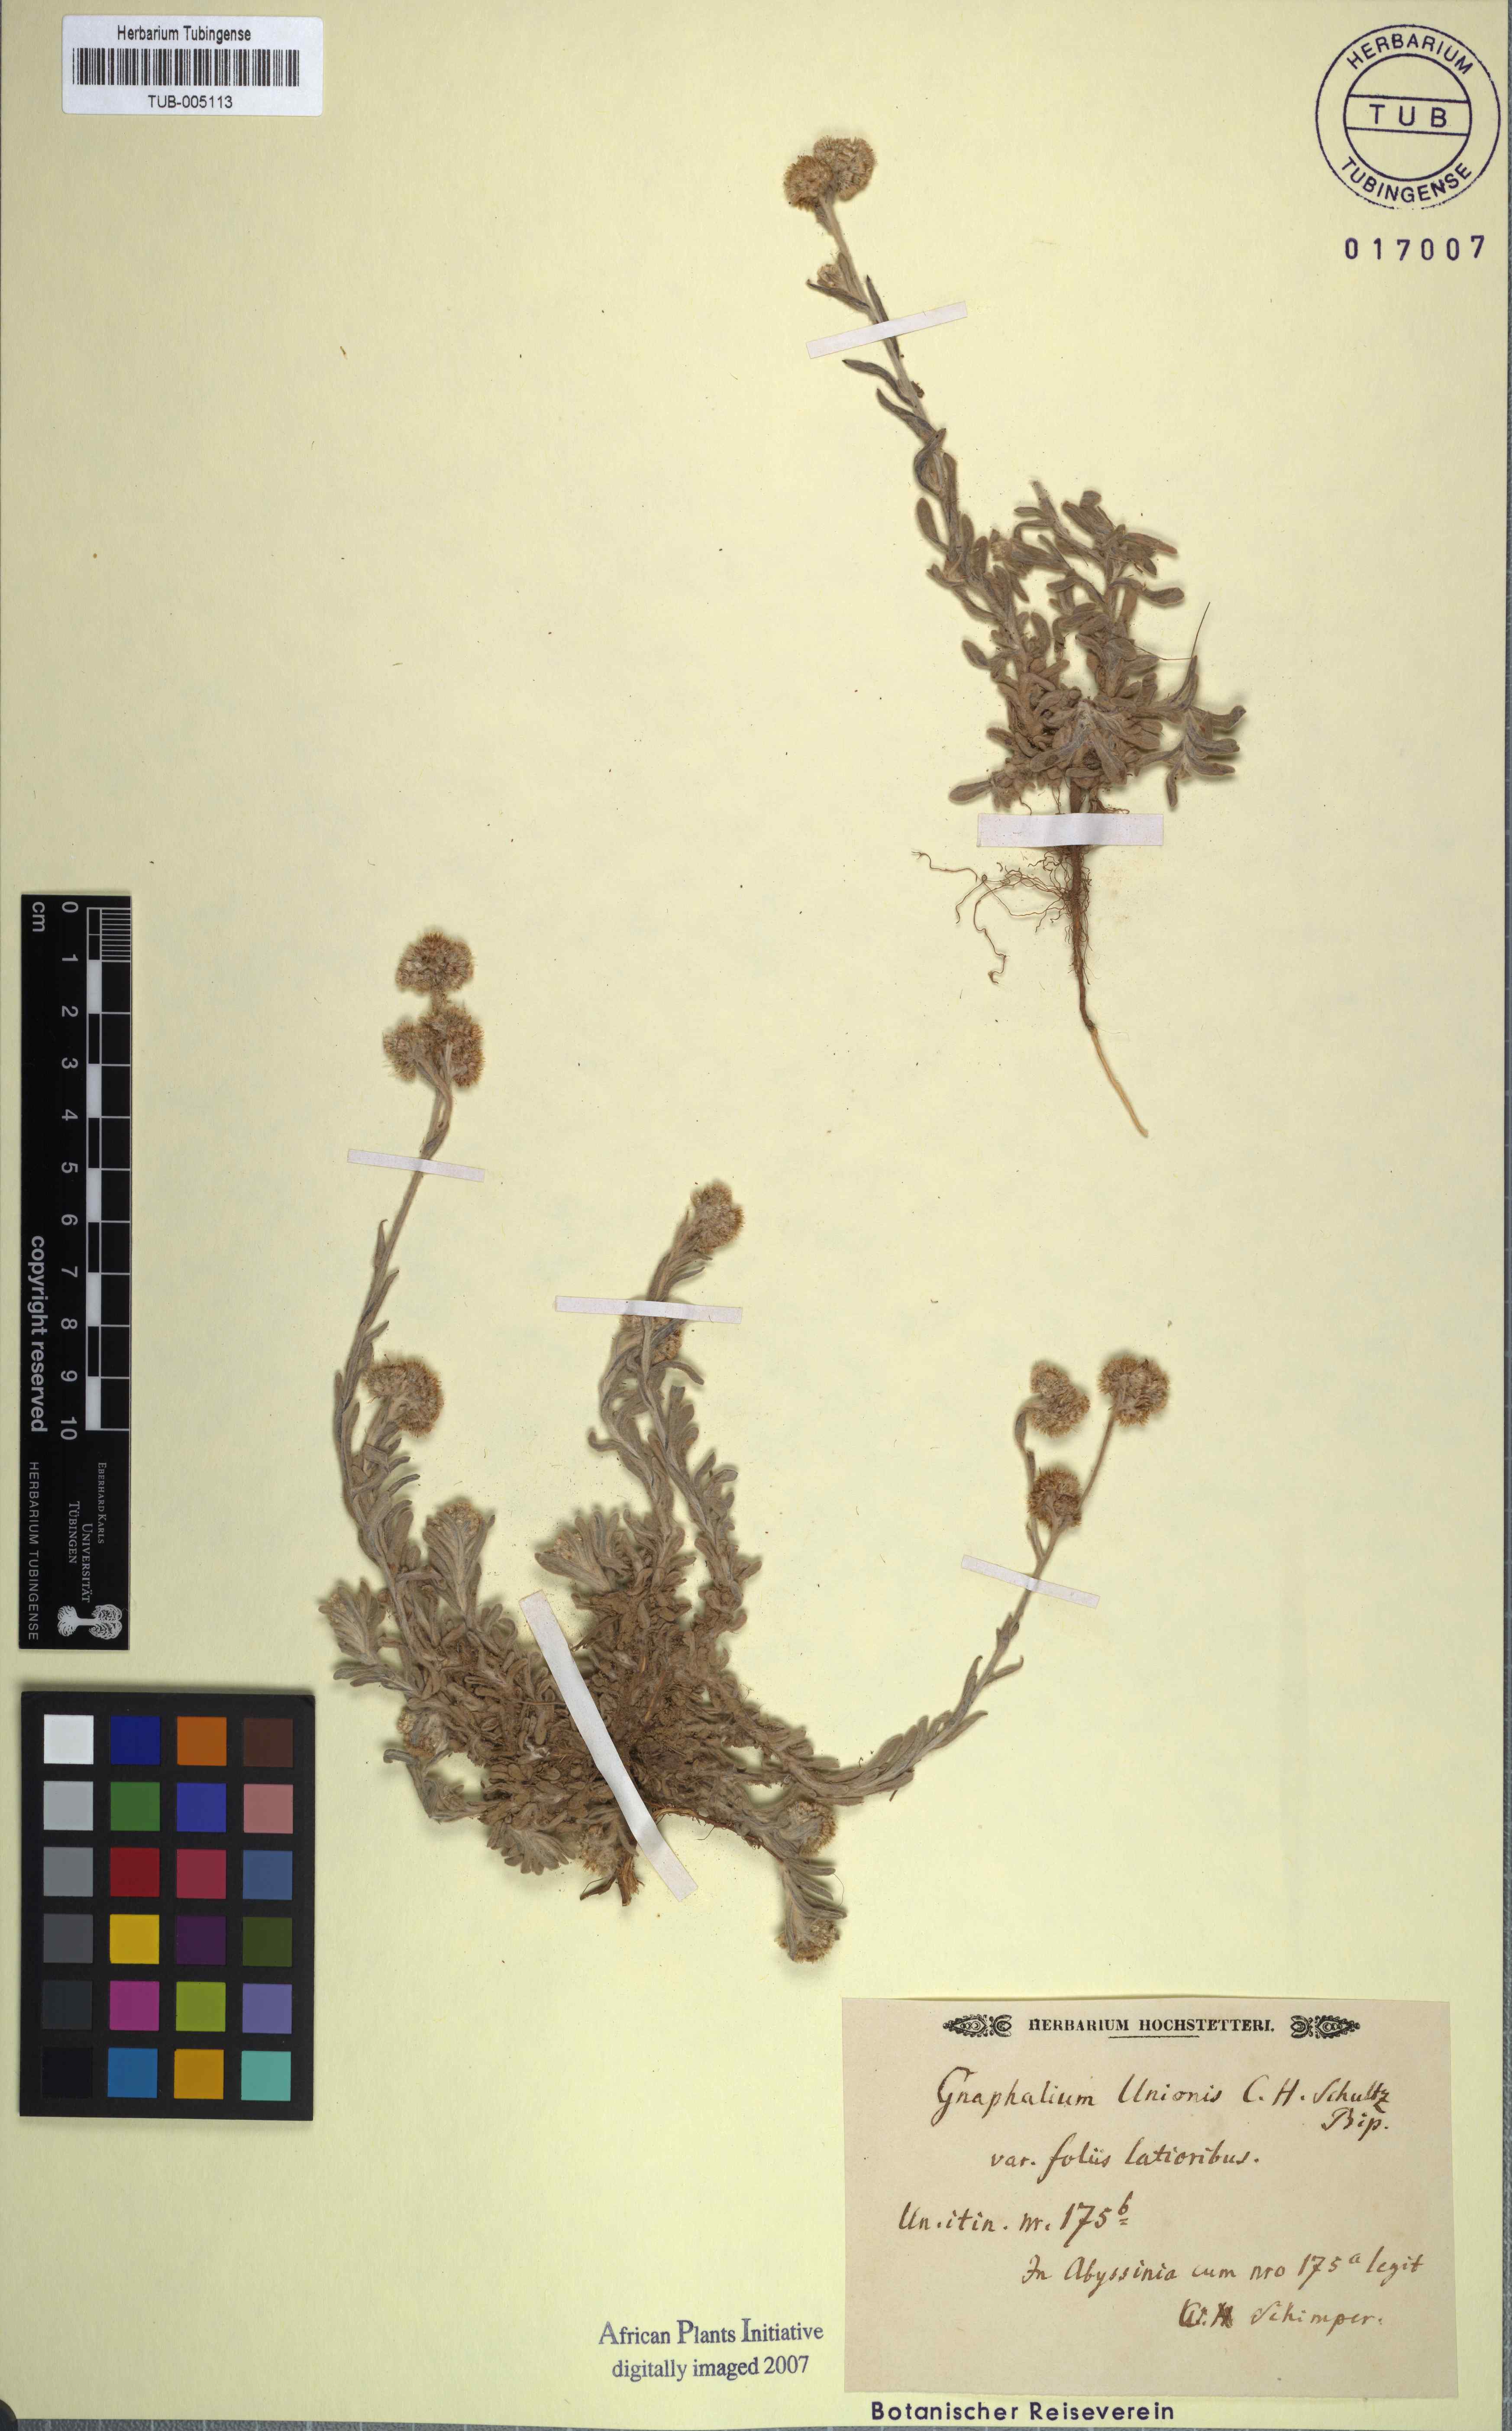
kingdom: Plantae
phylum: Tracheophyta
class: Magnoliopsida
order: Asterales
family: Asteraceae
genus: Gnaphalium
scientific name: Gnaphalium unionis
